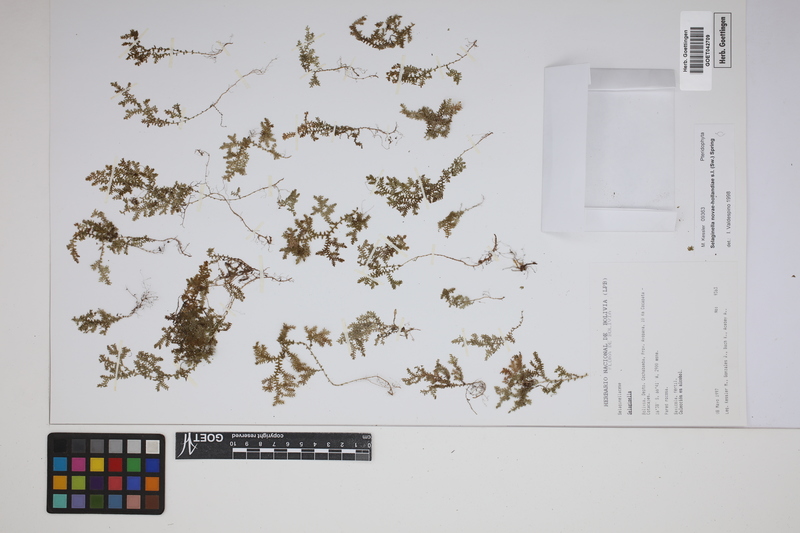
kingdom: Plantae
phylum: Tracheophyta
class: Lycopodiopsida
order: Selaginellales
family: Selaginellaceae
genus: Selaginella
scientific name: Selaginella novae-hollandiae
